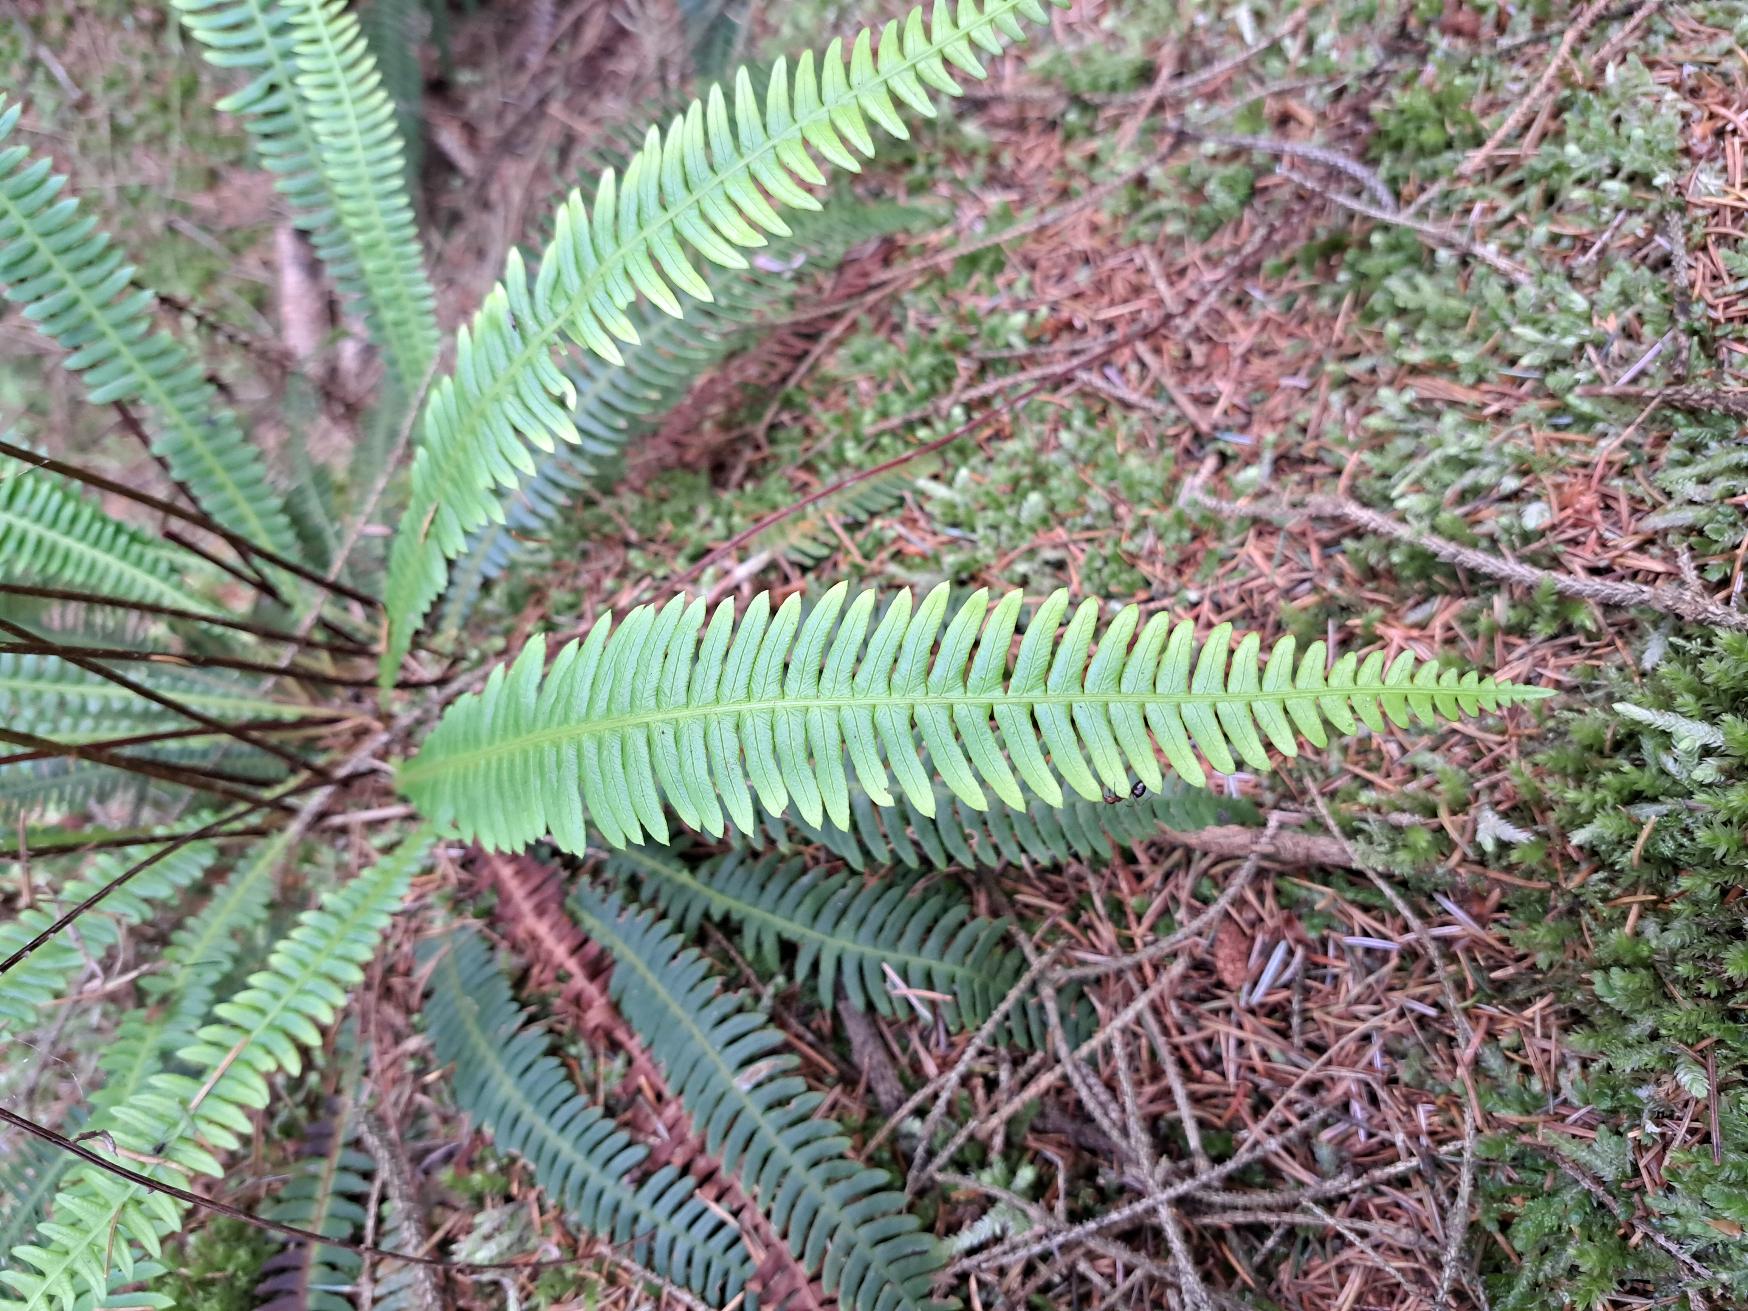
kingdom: Plantae
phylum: Tracheophyta
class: Polypodiopsida
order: Polypodiales
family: Blechnaceae
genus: Struthiopteris
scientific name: Struthiopteris spicant
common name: Kambregne
